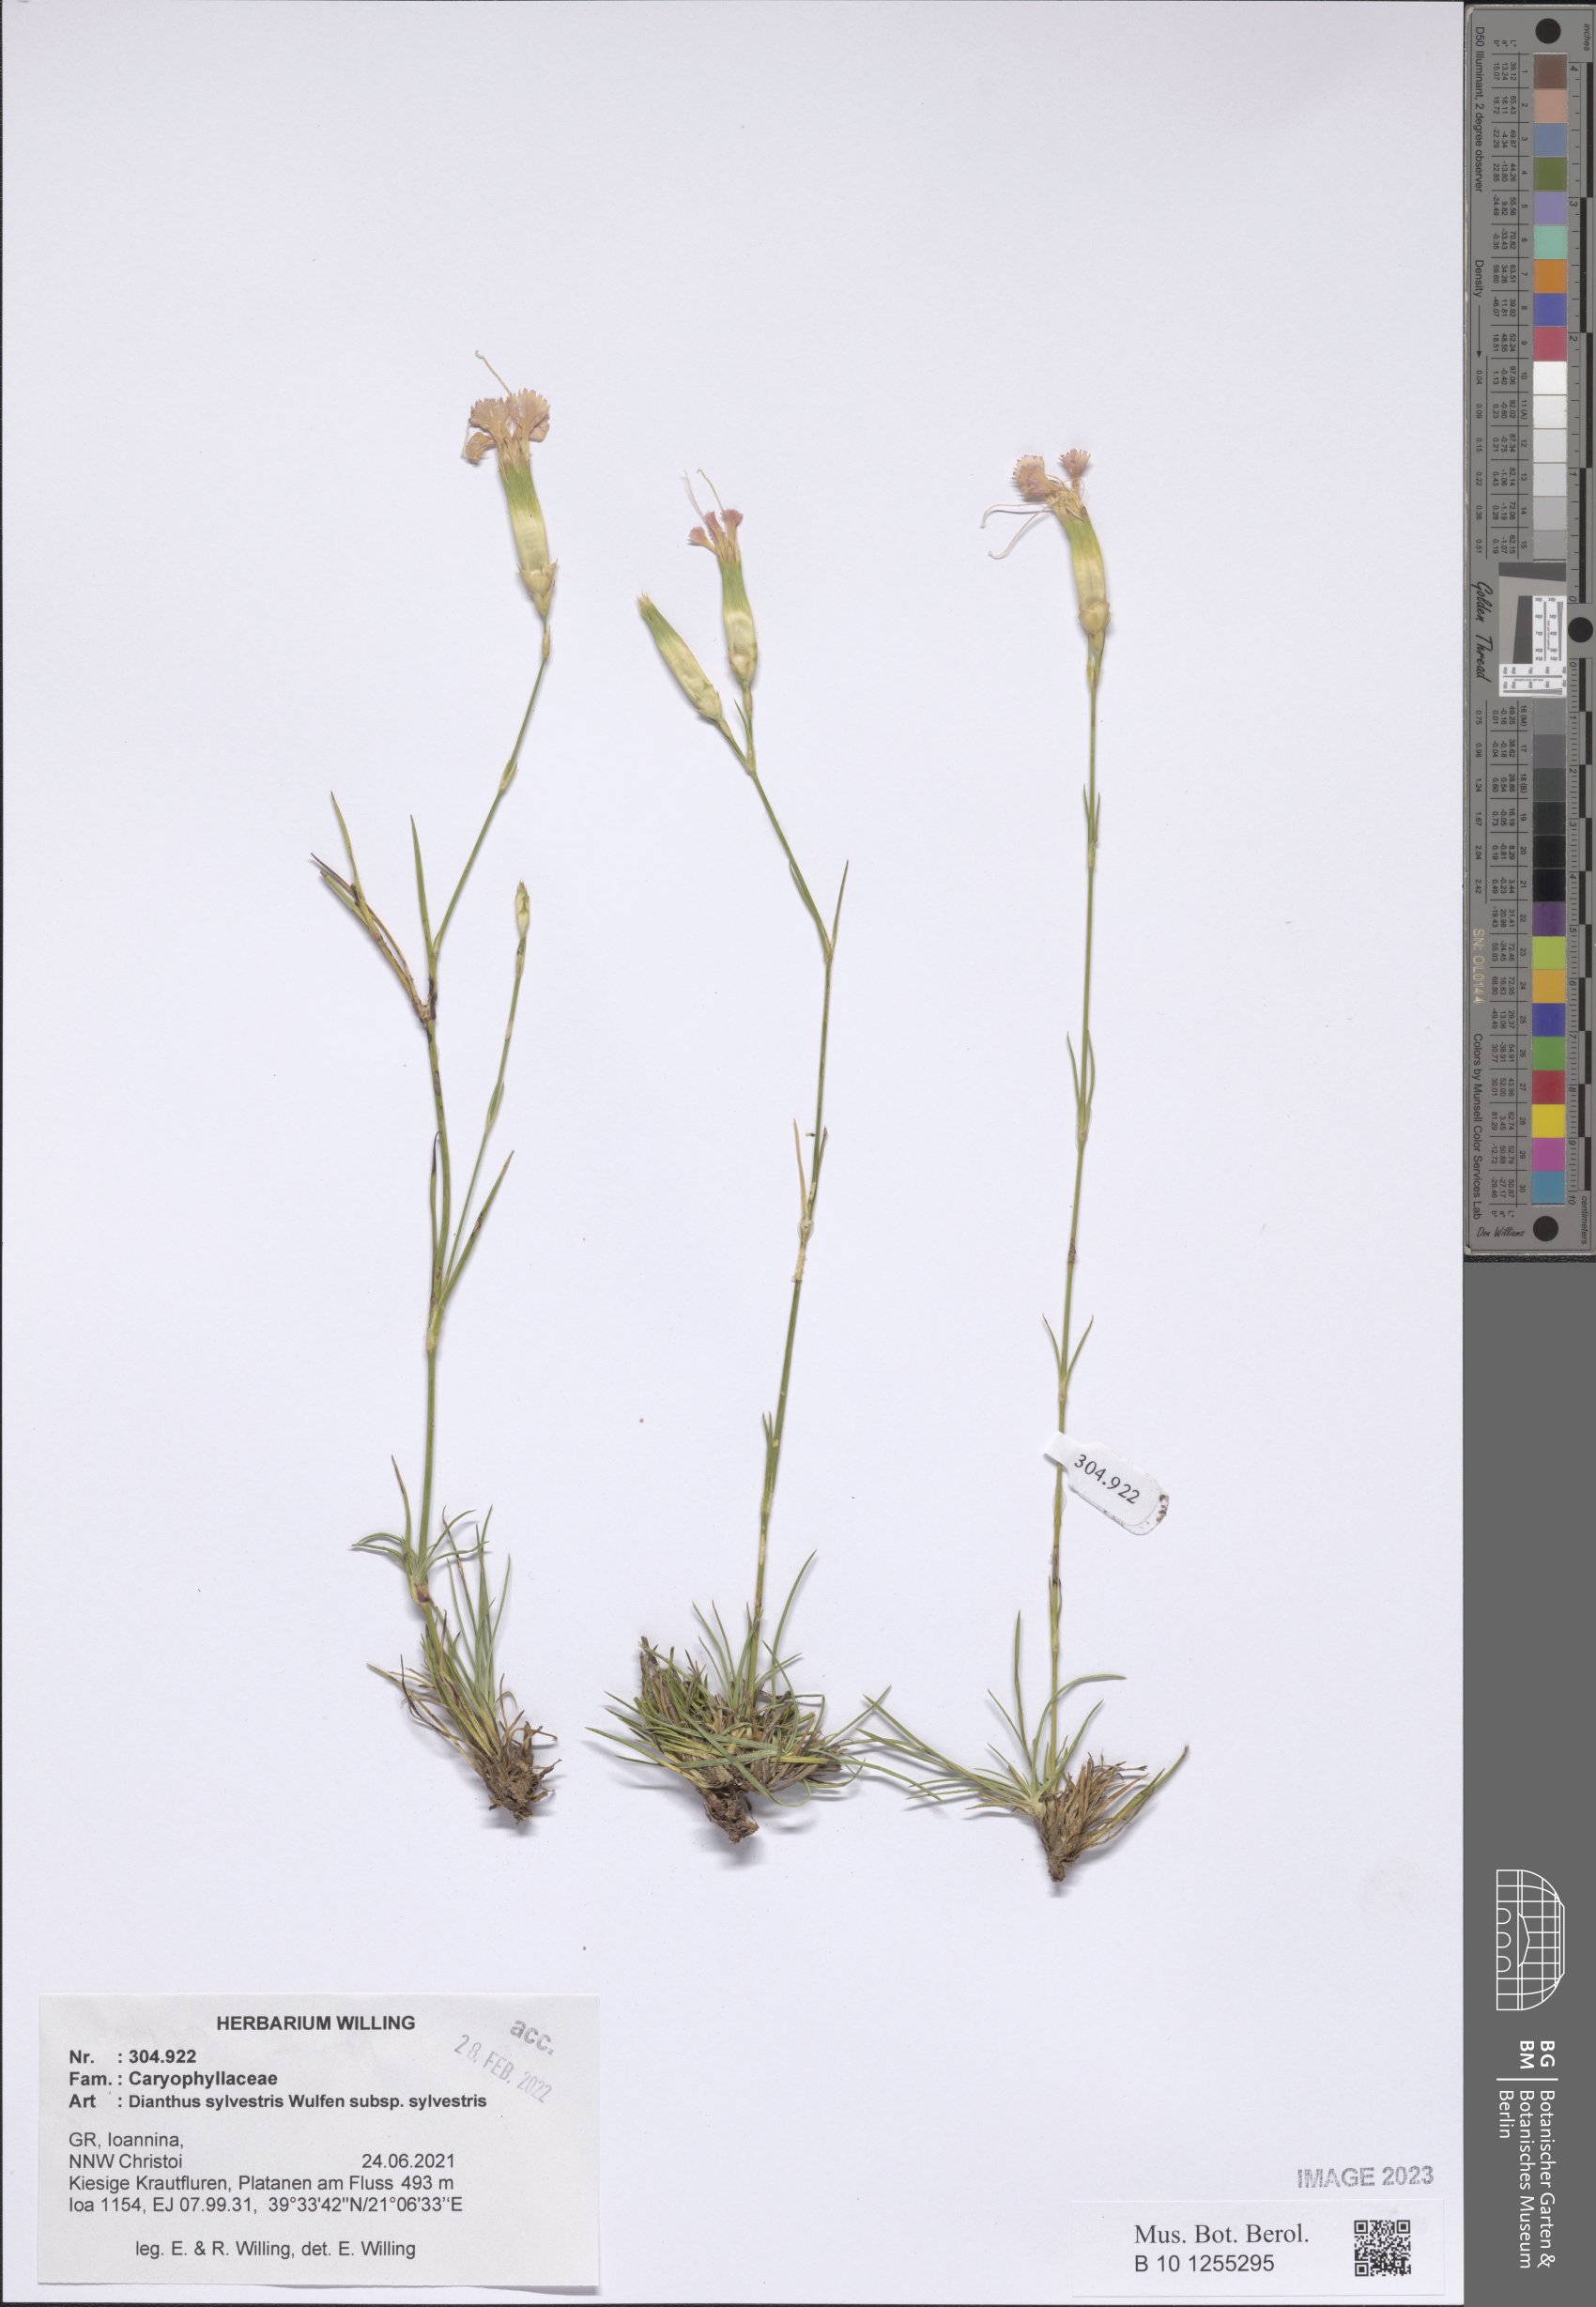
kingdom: Plantae
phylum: Tracheophyta
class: Magnoliopsida
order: Caryophyllales
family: Caryophyllaceae
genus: Dianthus
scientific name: Dianthus sylvestris
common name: Wood pink
